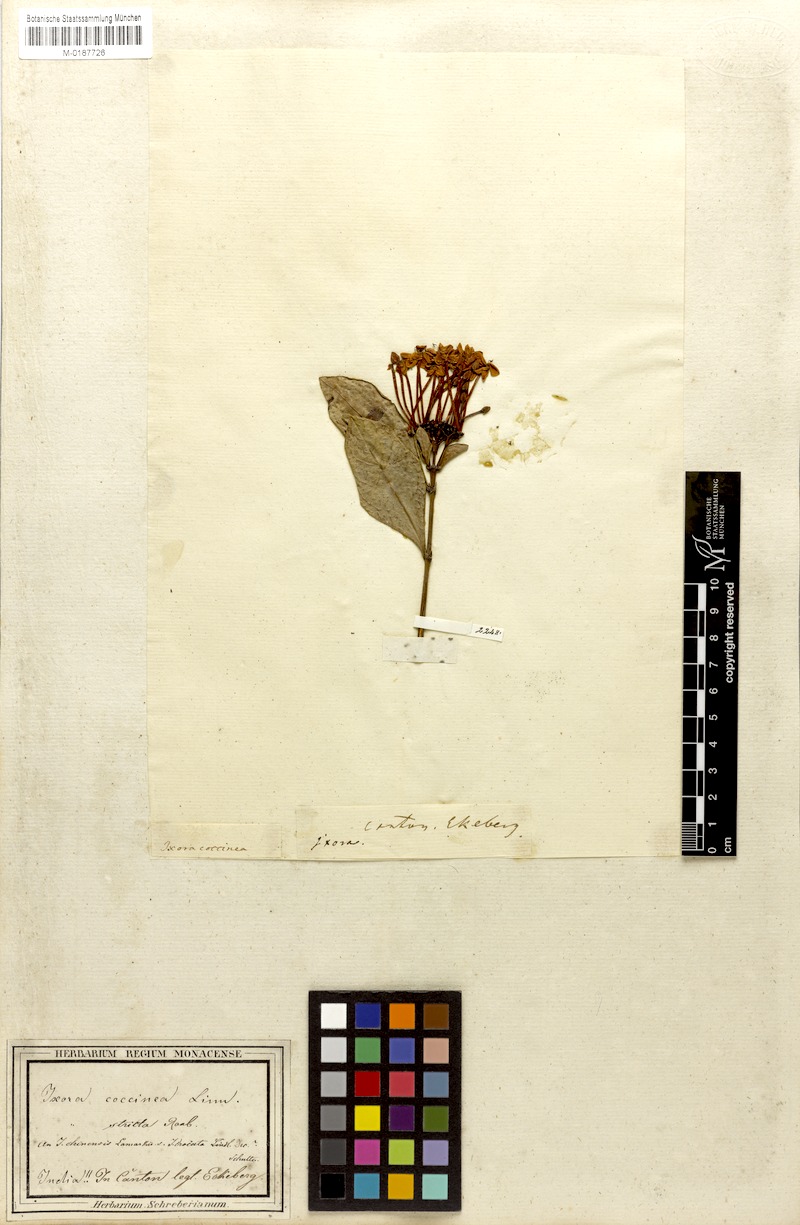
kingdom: Plantae
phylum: Tracheophyta
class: Magnoliopsida
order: Gentianales
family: Rubiaceae
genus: Ixora
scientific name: Ixora coccinea
